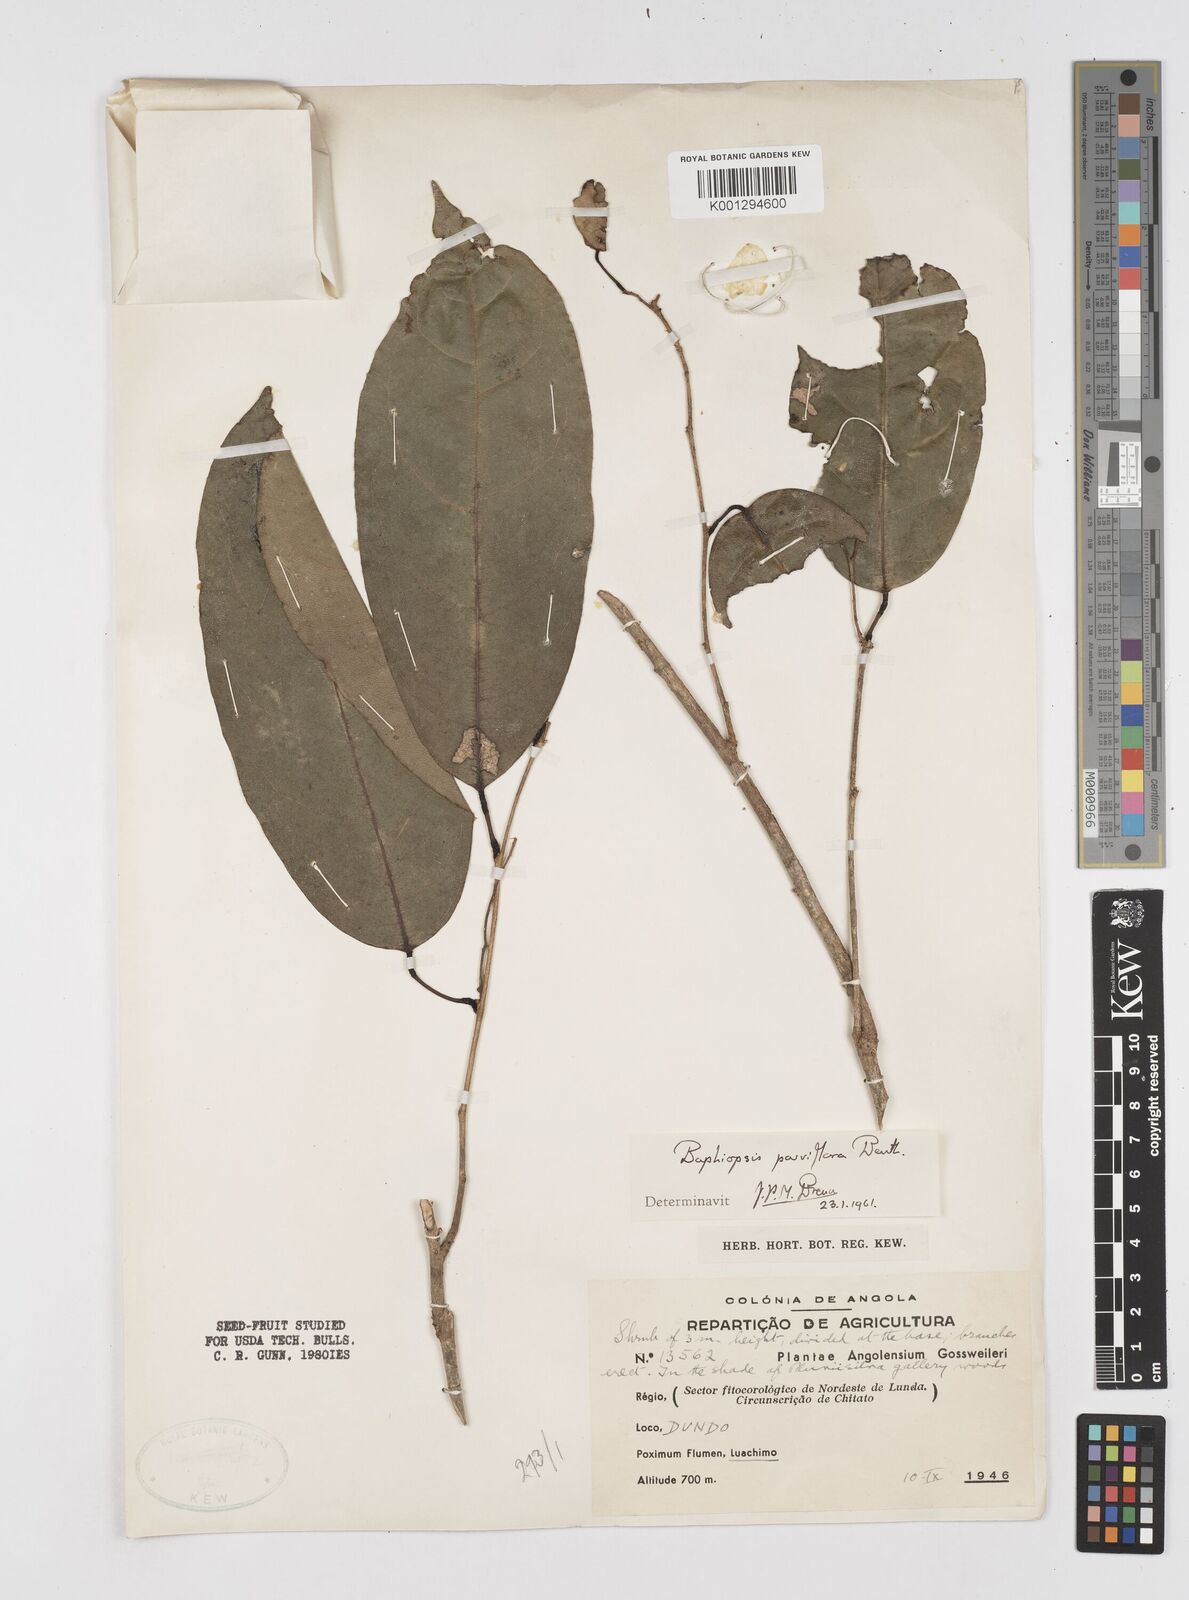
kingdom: Plantae
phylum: Tracheophyta
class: Magnoliopsida
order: Fabales
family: Fabaceae
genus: Baphiopsis
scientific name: Baphiopsis parviflora
